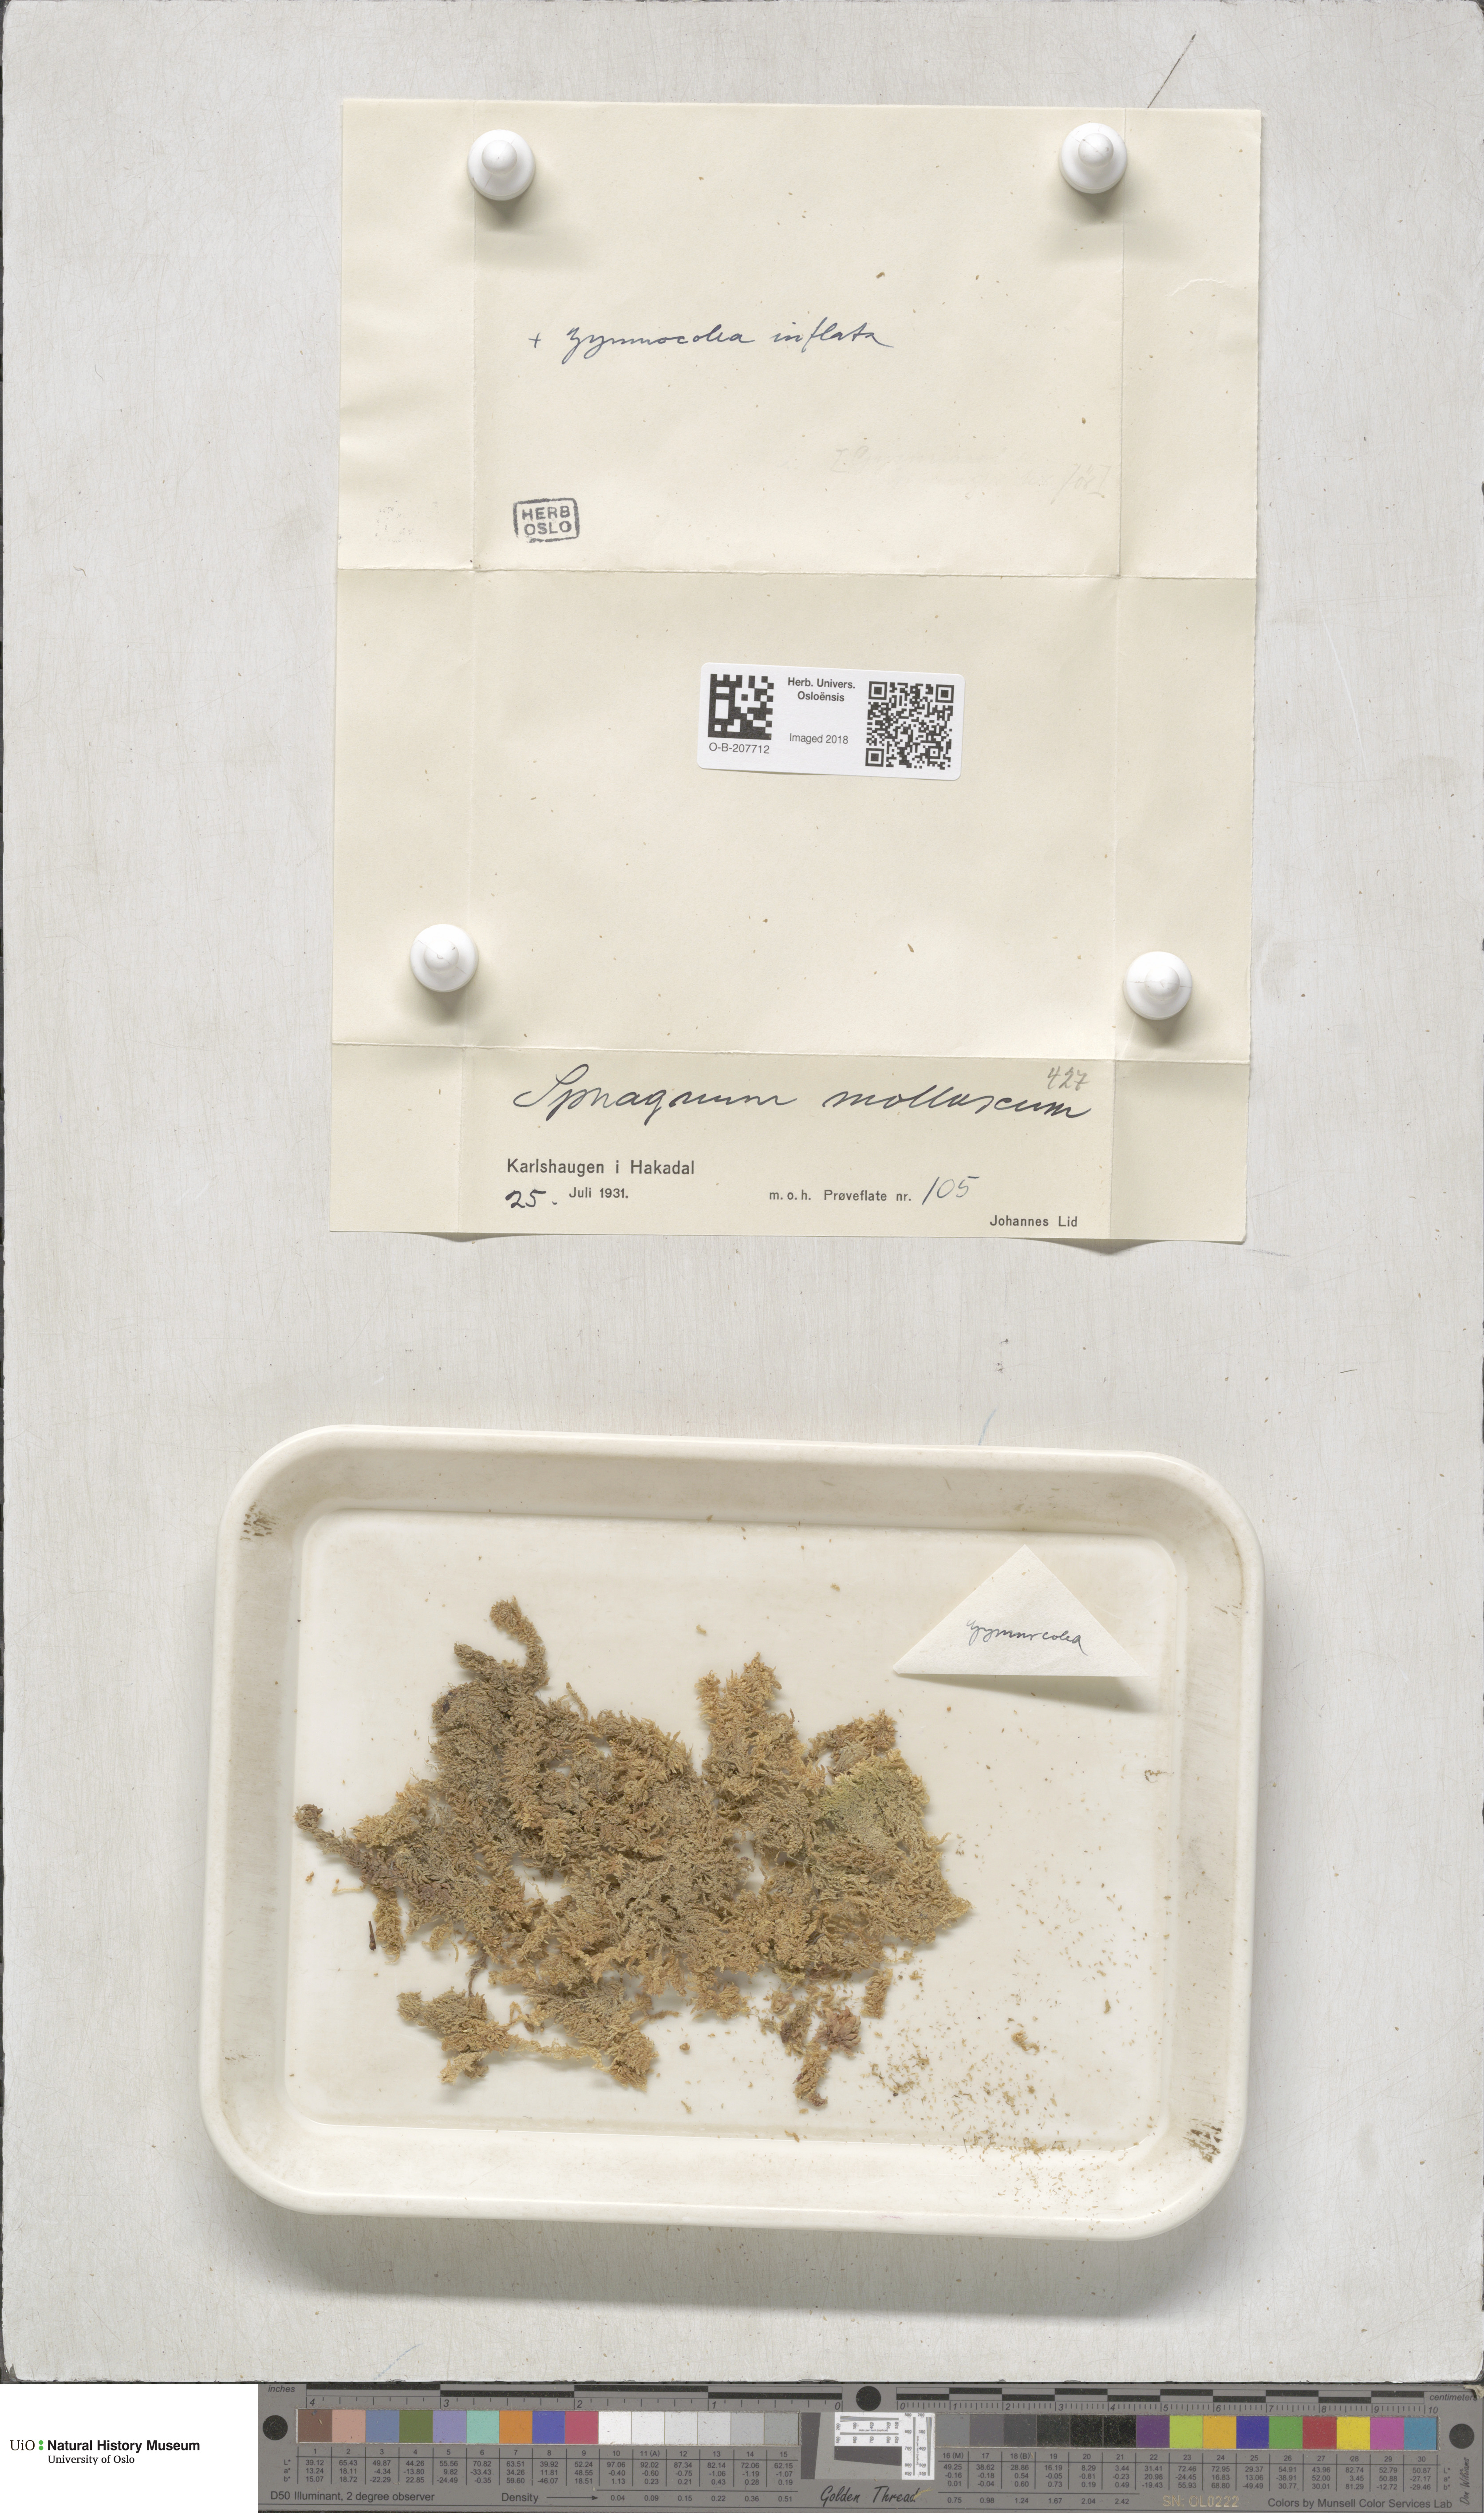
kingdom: Plantae
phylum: Bryophyta
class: Sphagnopsida
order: Sphagnales
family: Sphagnaceae
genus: Sphagnum
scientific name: Sphagnum tenellum
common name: Soft bog-moss
